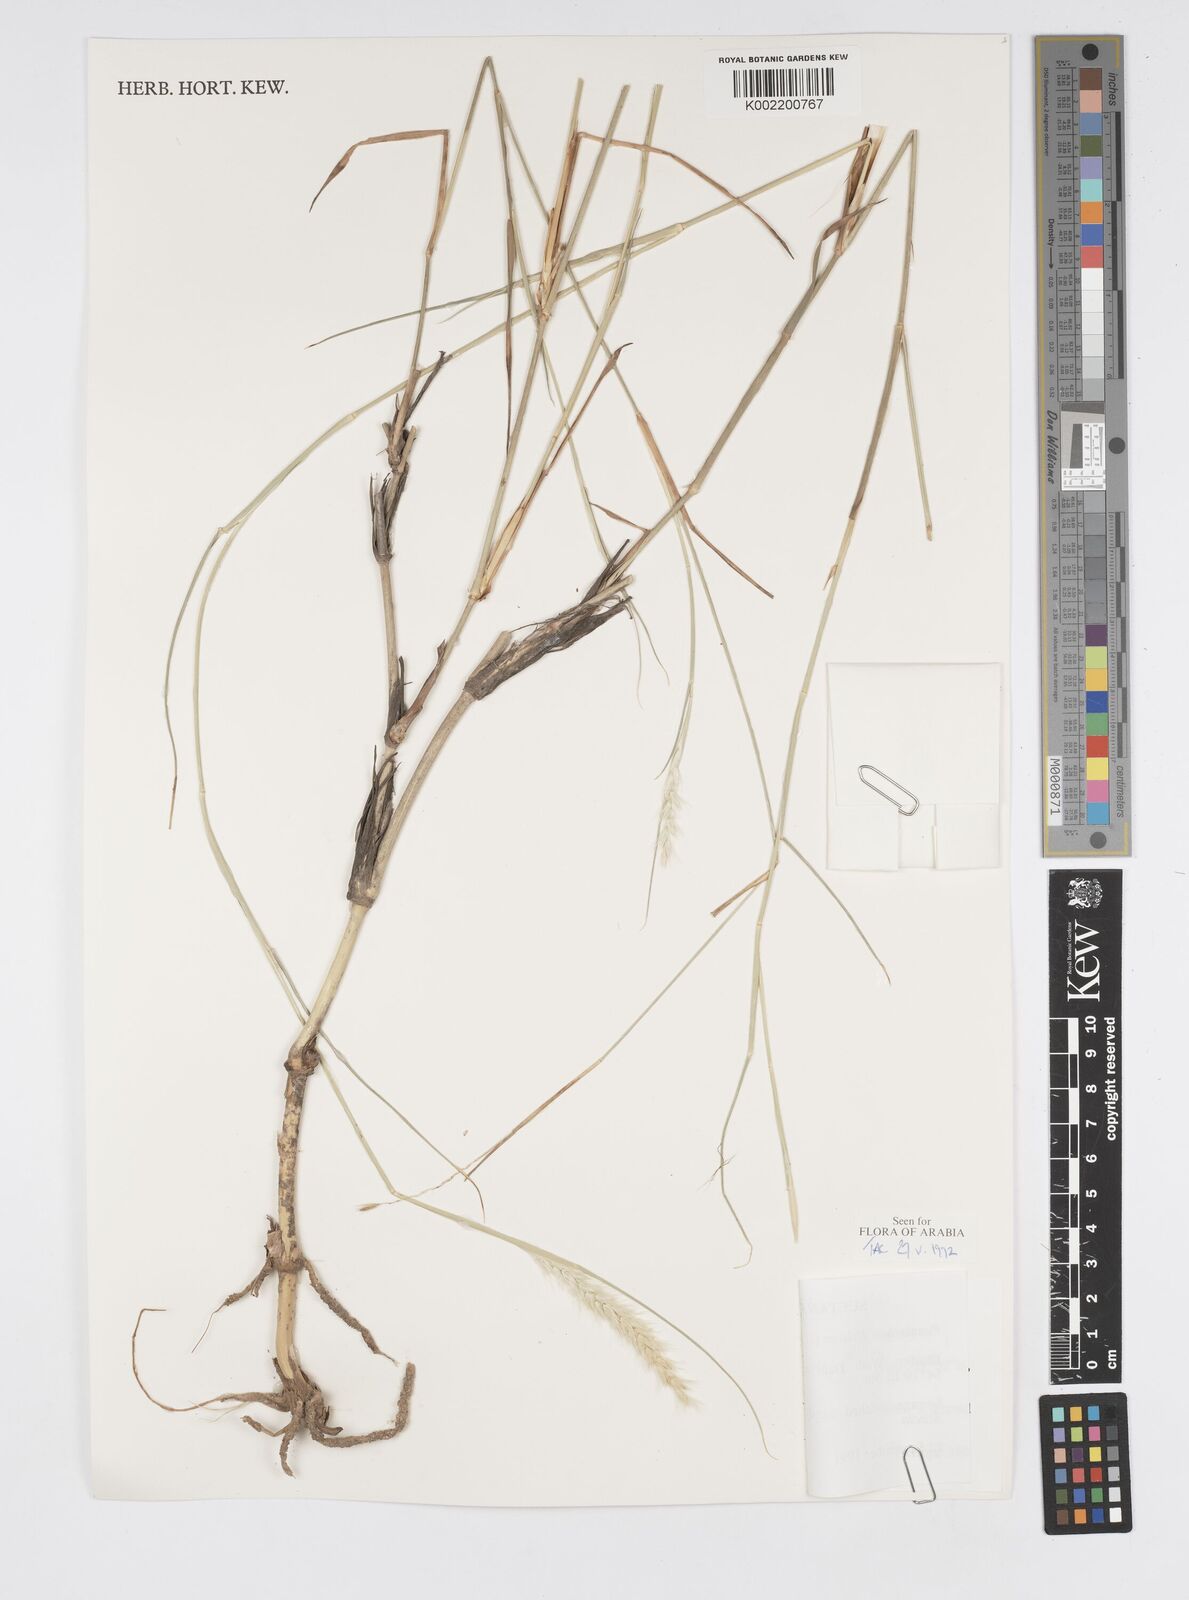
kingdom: Plantae
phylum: Tracheophyta
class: Liliopsida
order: Poales
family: Poaceae
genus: Cenchrus
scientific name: Cenchrus divisus
